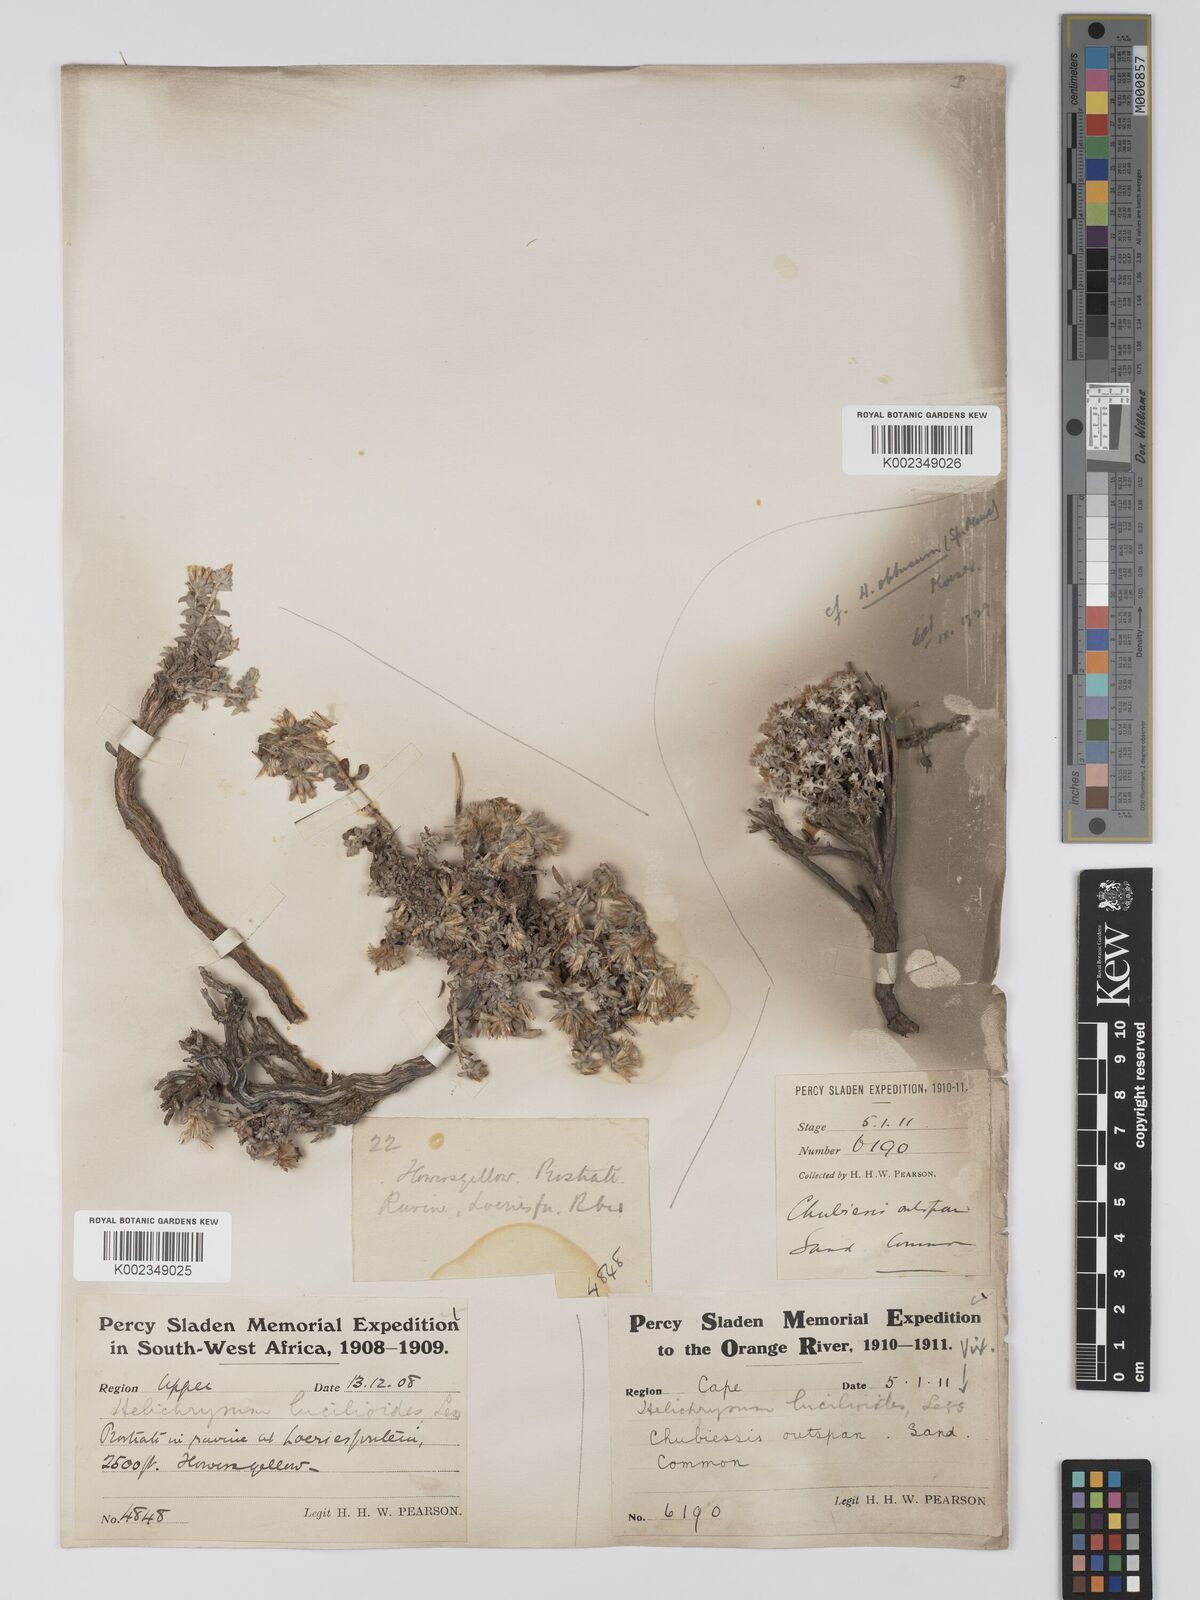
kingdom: Plantae
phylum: Tracheophyta
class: Magnoliopsida
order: Asterales
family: Asteraceae
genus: Helichrysum
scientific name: Helichrysum lucilioides
